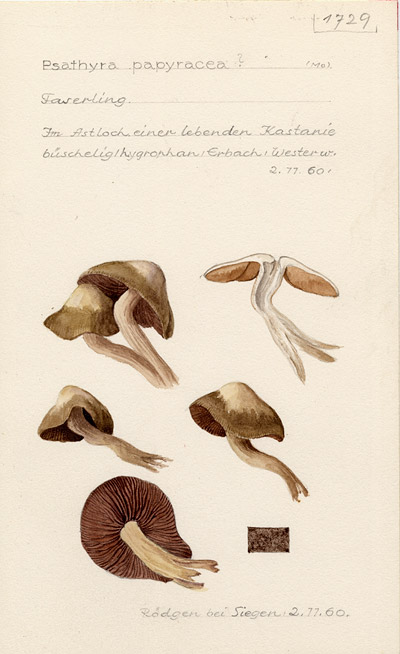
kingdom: Fungi
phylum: Basidiomycota
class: Agaricomycetes
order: Agaricales
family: Psathyrellaceae
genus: Homophron
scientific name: Homophron cernuum
